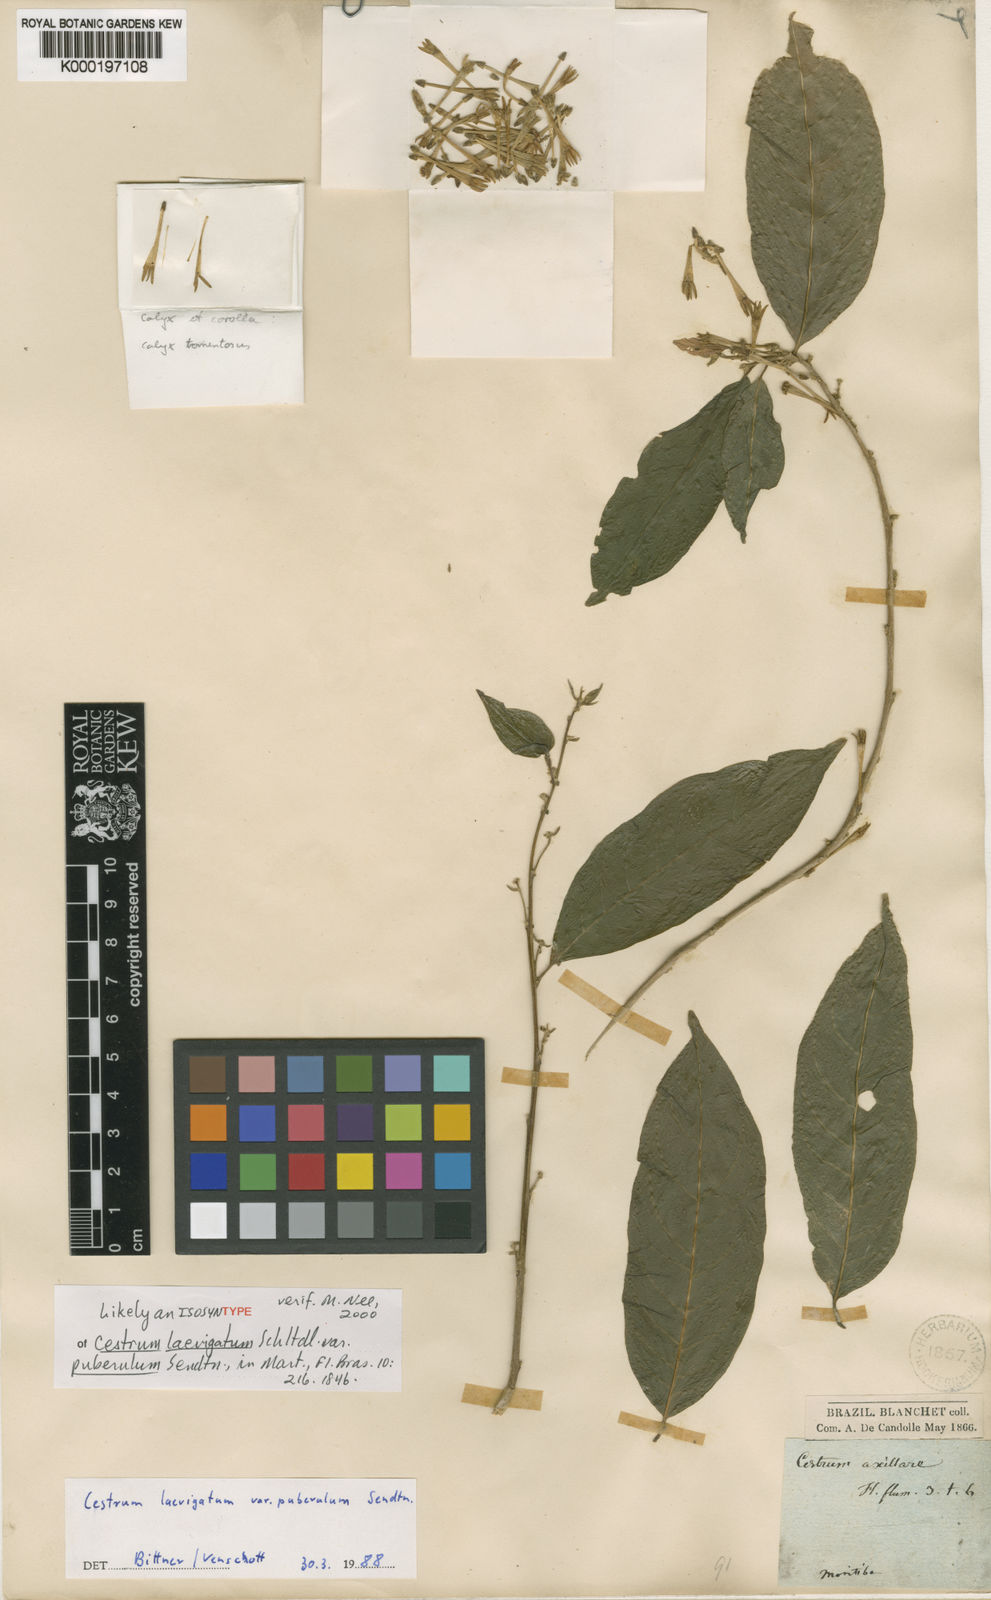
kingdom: Plantae
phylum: Tracheophyta
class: Magnoliopsida
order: Solanales
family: Solanaceae
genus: Cestrum
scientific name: Cestrum laevigatum
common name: Inkberry
